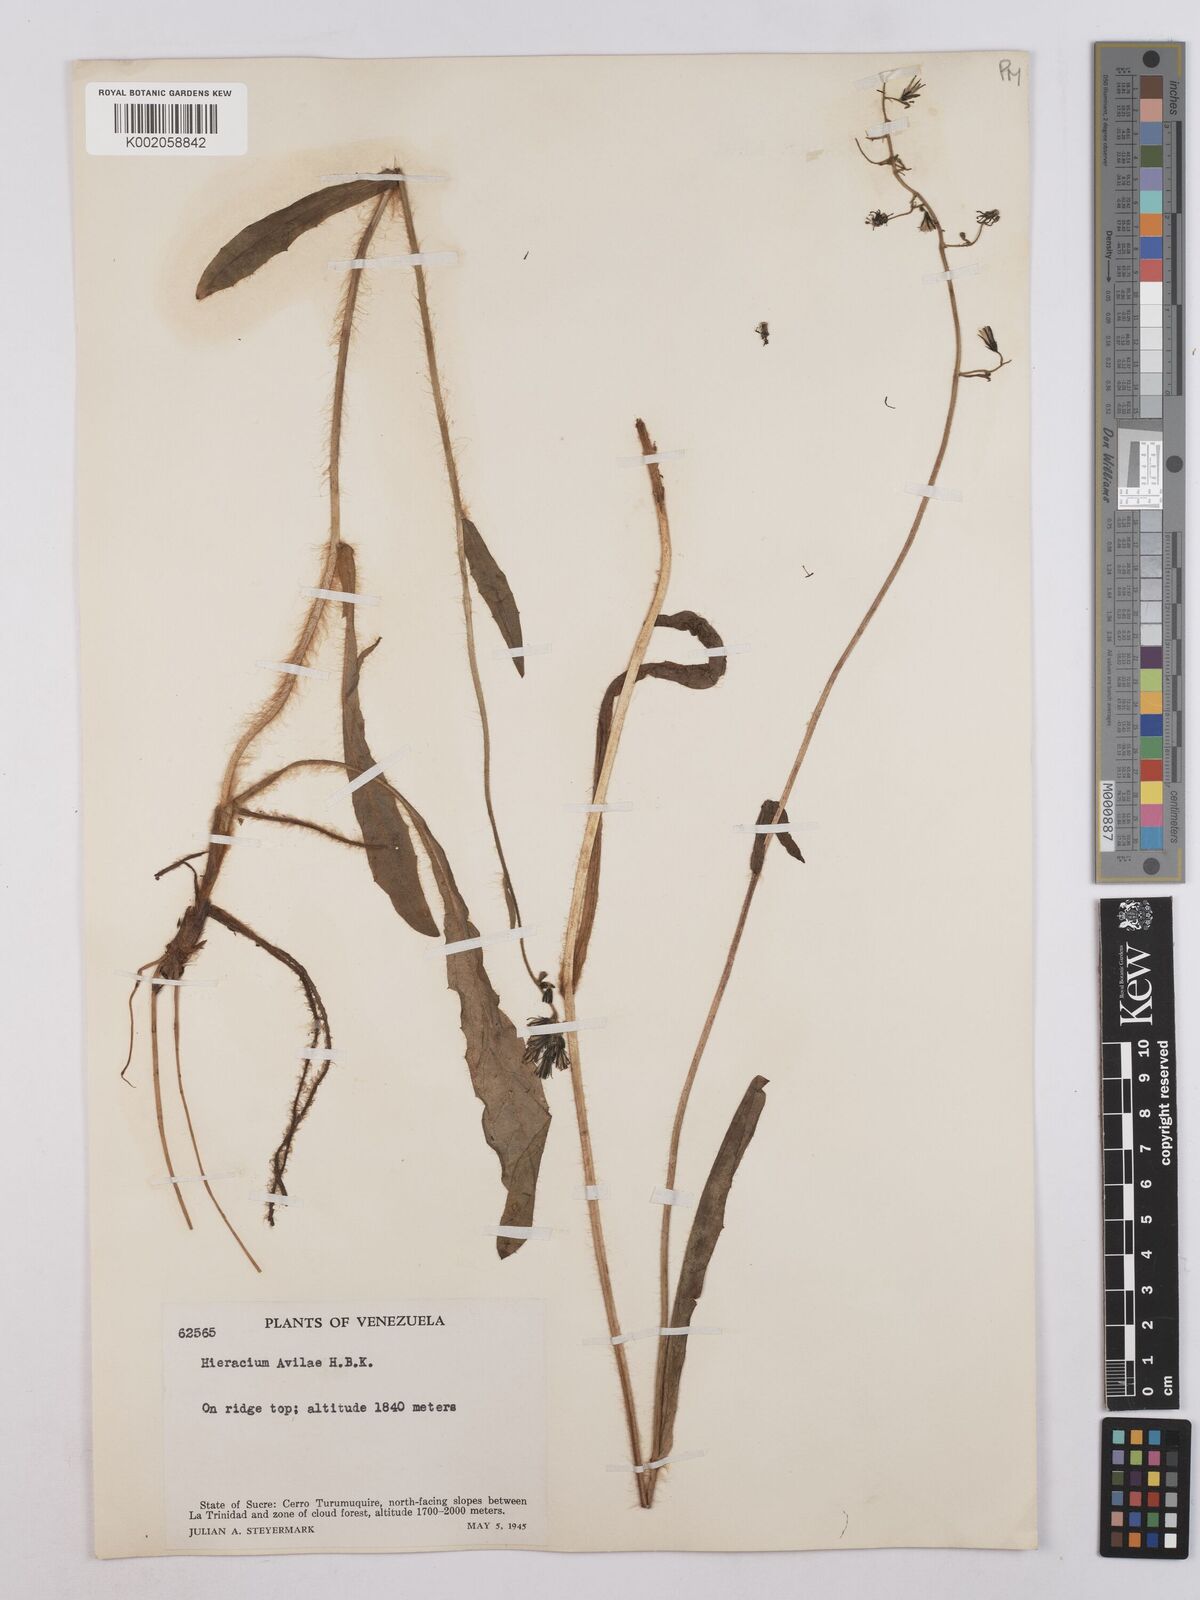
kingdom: Plantae
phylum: Tracheophyta
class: Magnoliopsida
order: Asterales
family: Asteraceae
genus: Hieracium
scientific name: Hieracium avilae
